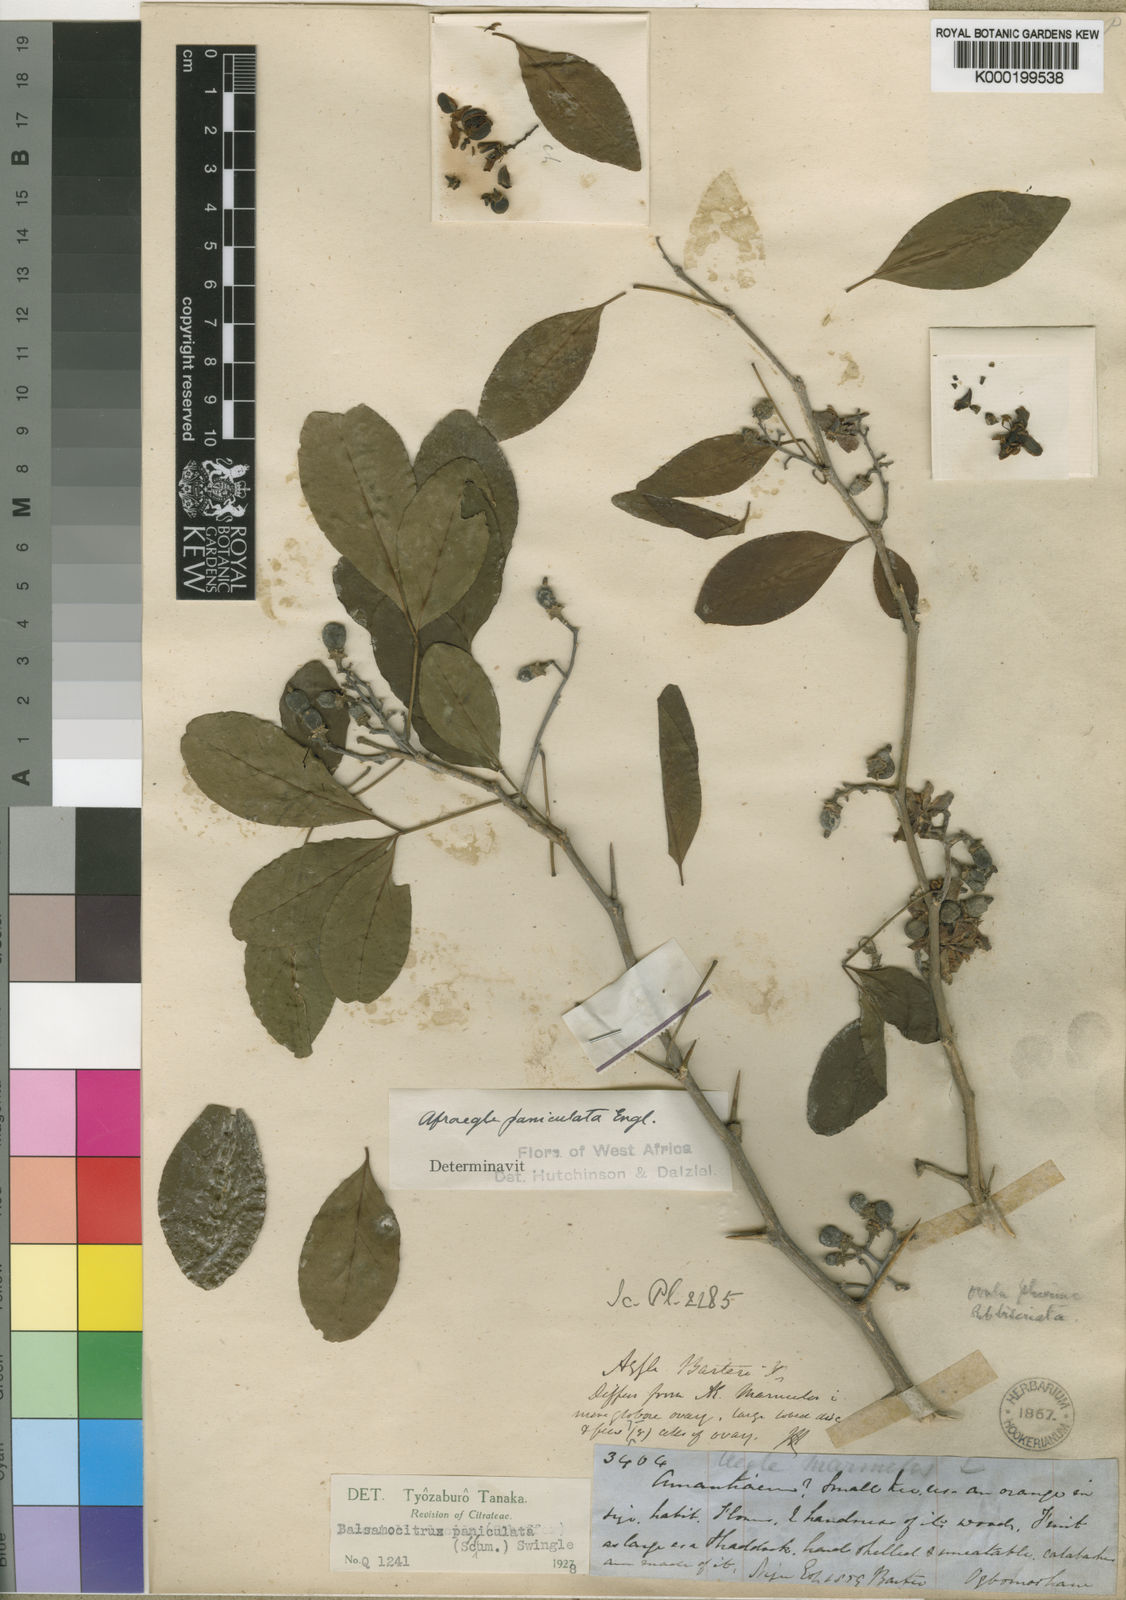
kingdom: Plantae
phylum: Tracheophyta
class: Magnoliopsida
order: Sapindales
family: Rutaceae
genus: Afraegle
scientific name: Afraegle paniculata
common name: Guin-guin
